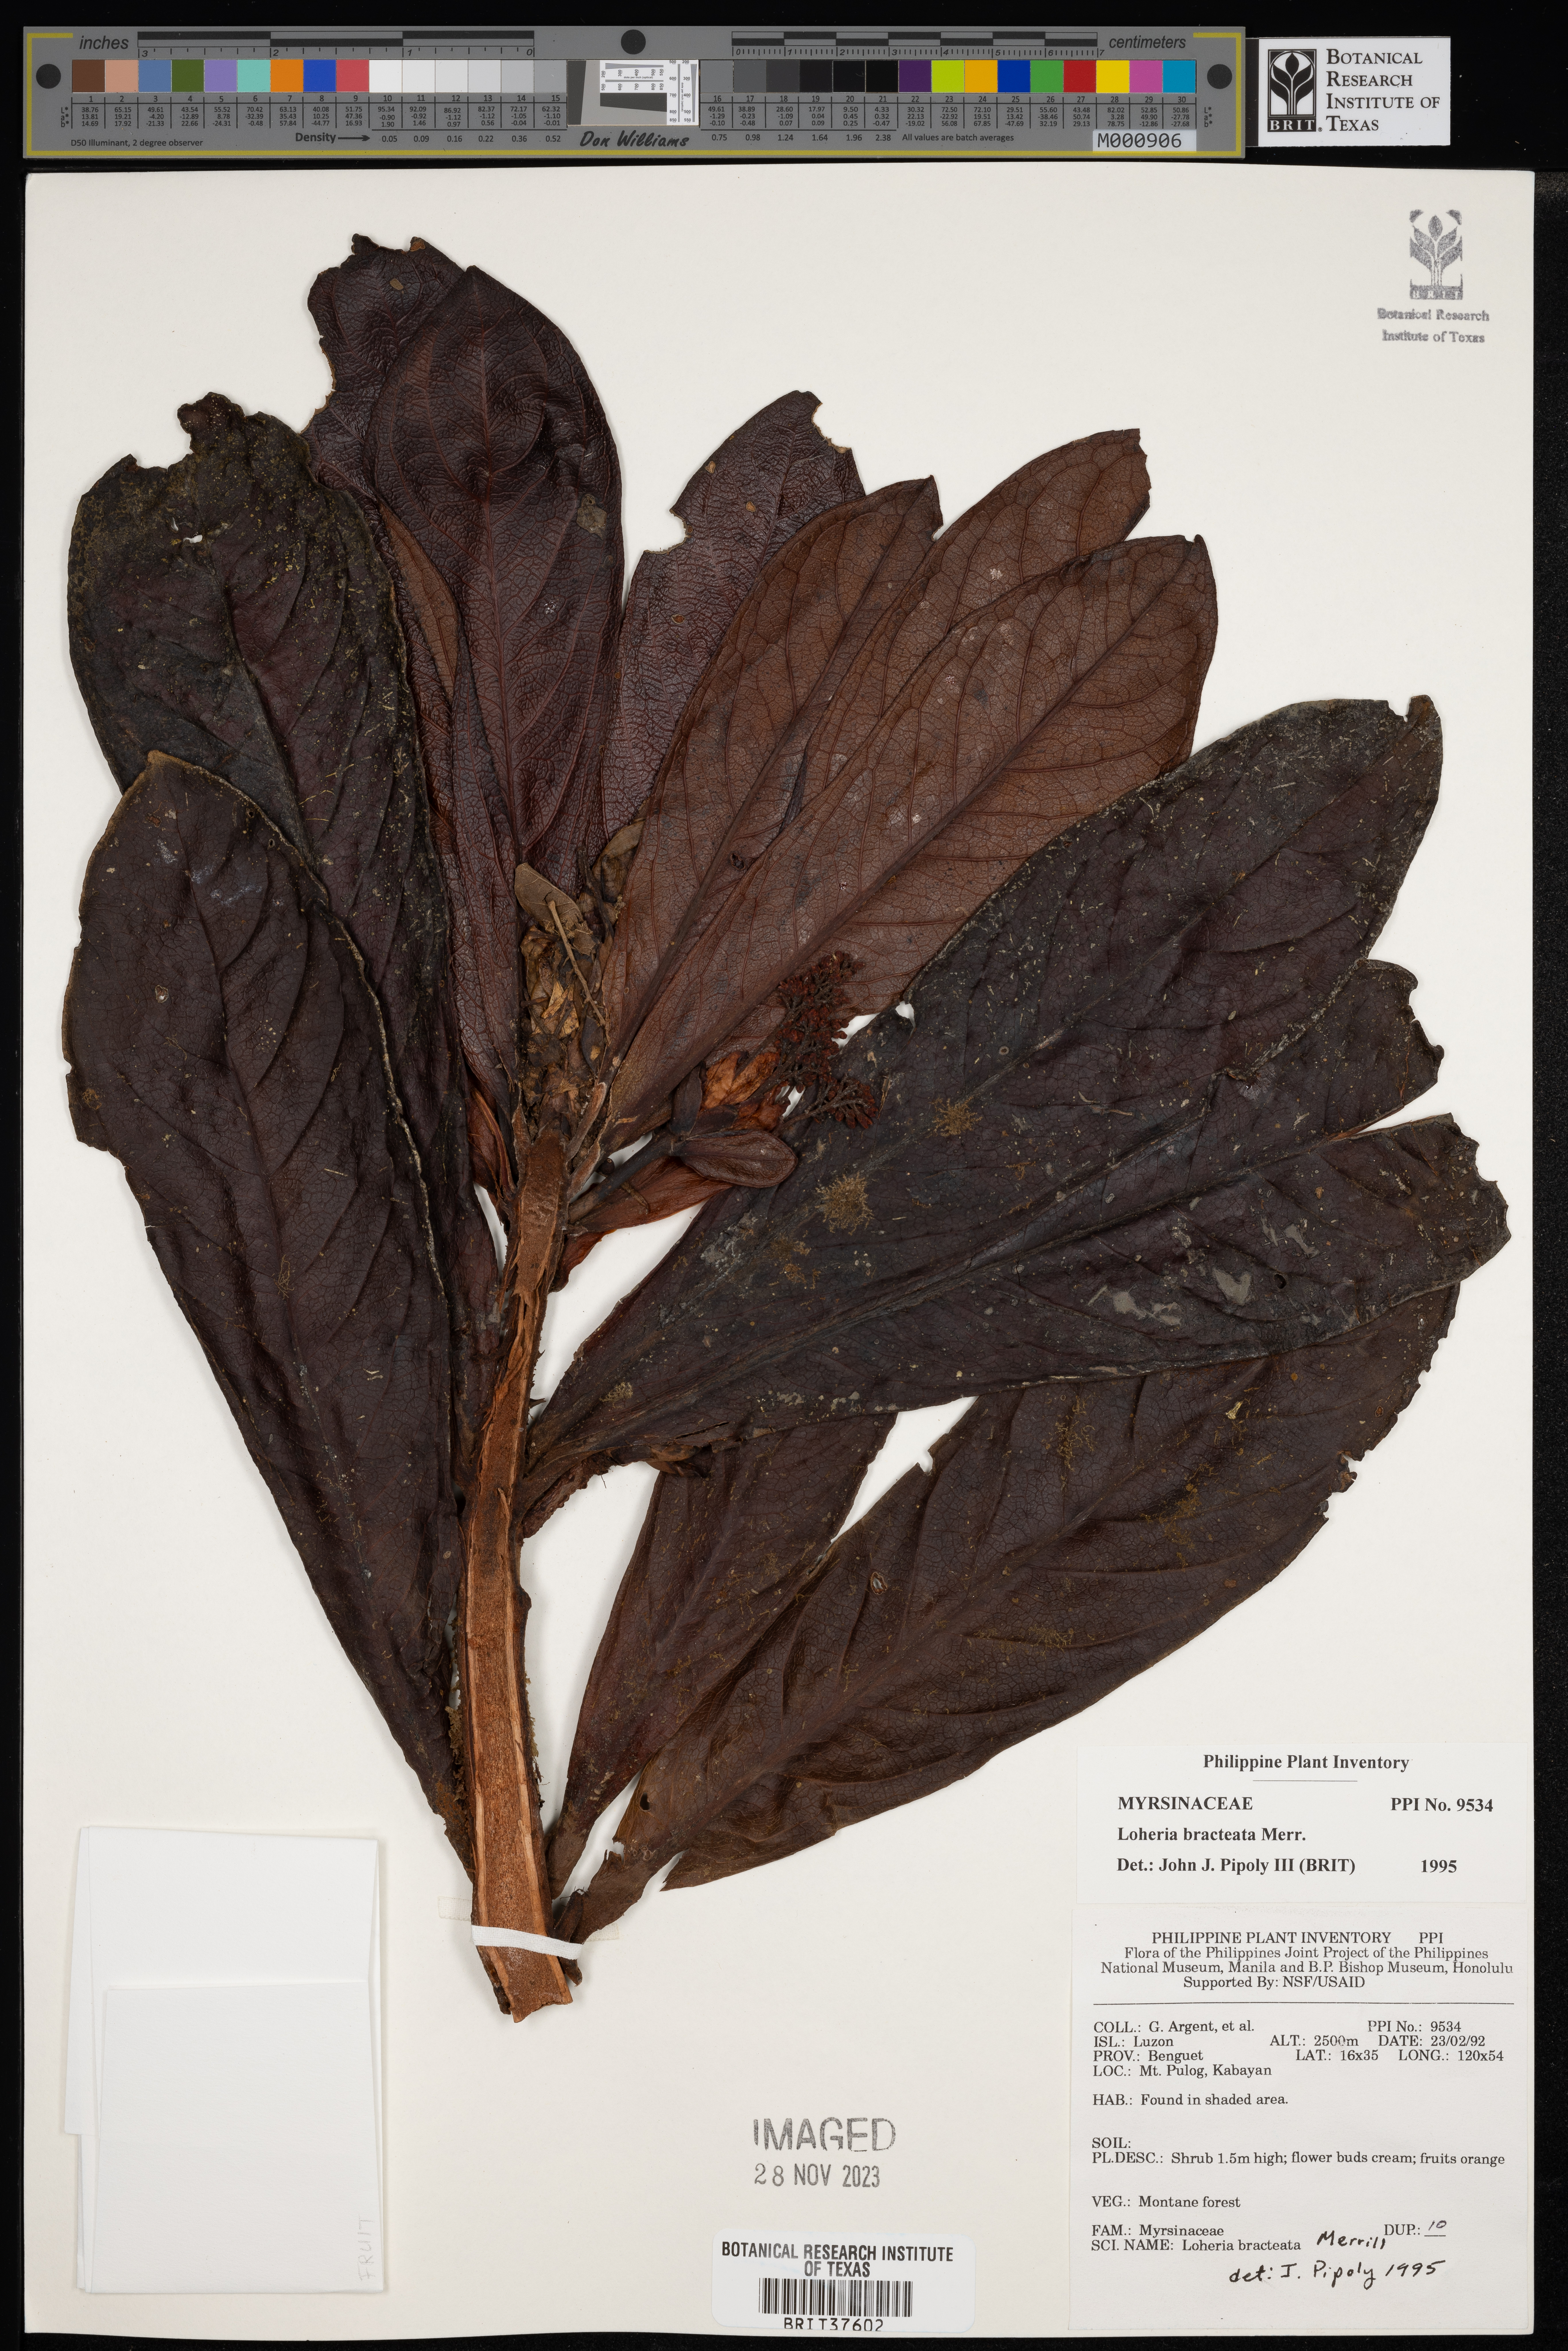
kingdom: Plantae
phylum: Tracheophyta
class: Magnoliopsida
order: Ericales
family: Primulaceae
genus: Loheria
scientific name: Loheria bracteata
